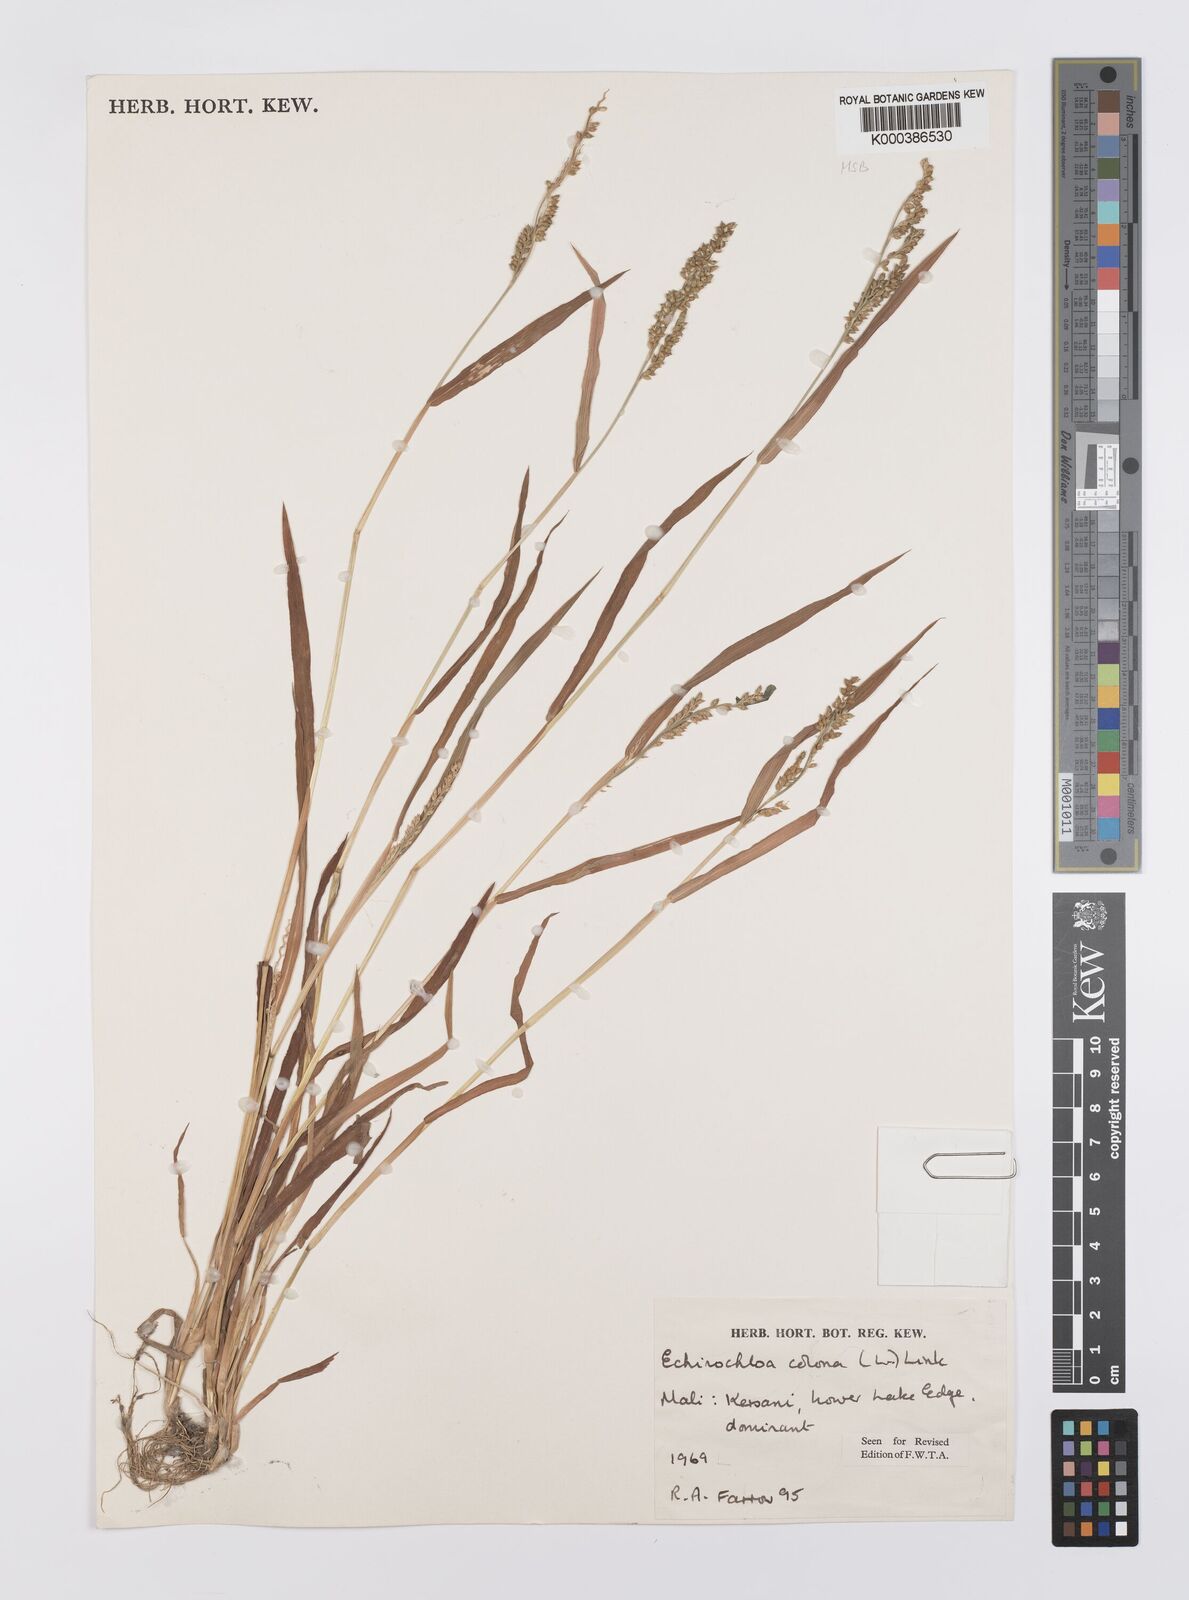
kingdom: Plantae
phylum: Tracheophyta
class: Liliopsida
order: Poales
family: Poaceae
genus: Echinochloa
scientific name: Echinochloa colonum
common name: Jungle rice
